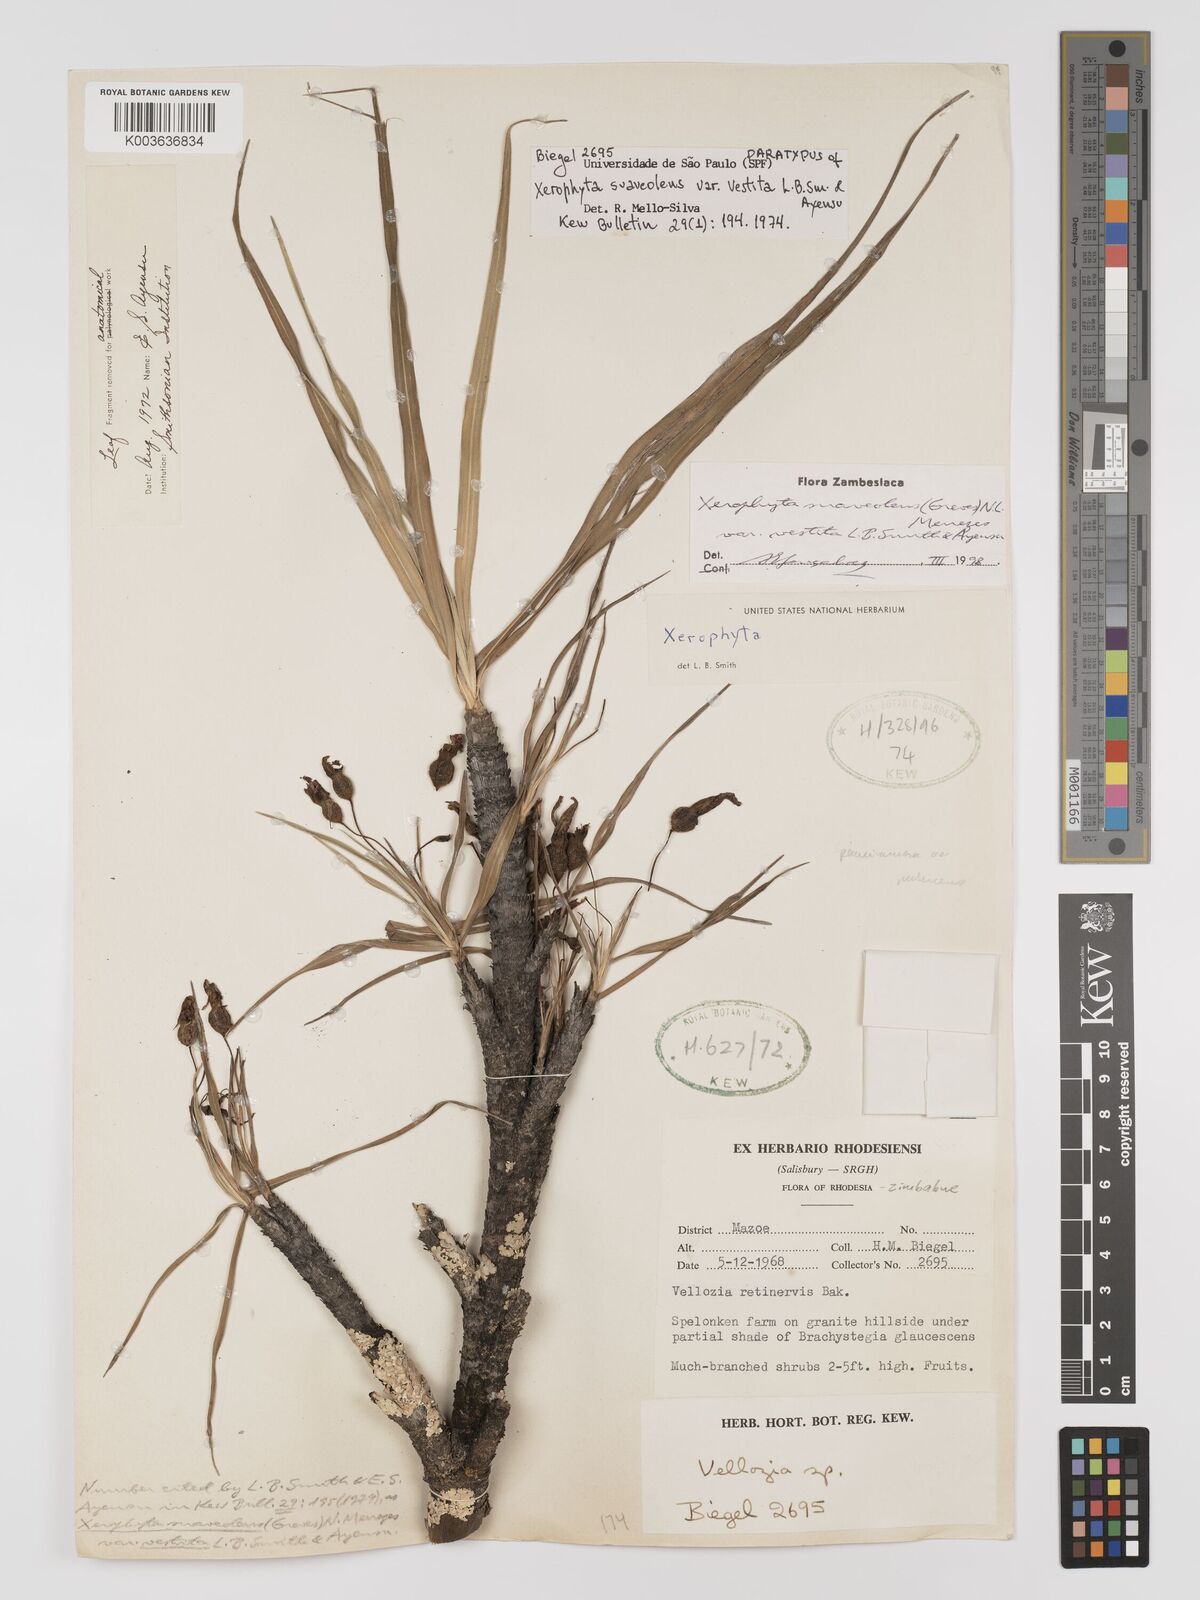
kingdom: Plantae
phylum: Tracheophyta
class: Liliopsida
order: Pandanales
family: Velloziaceae
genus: Xerophyta
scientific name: Xerophyta suaveolens
